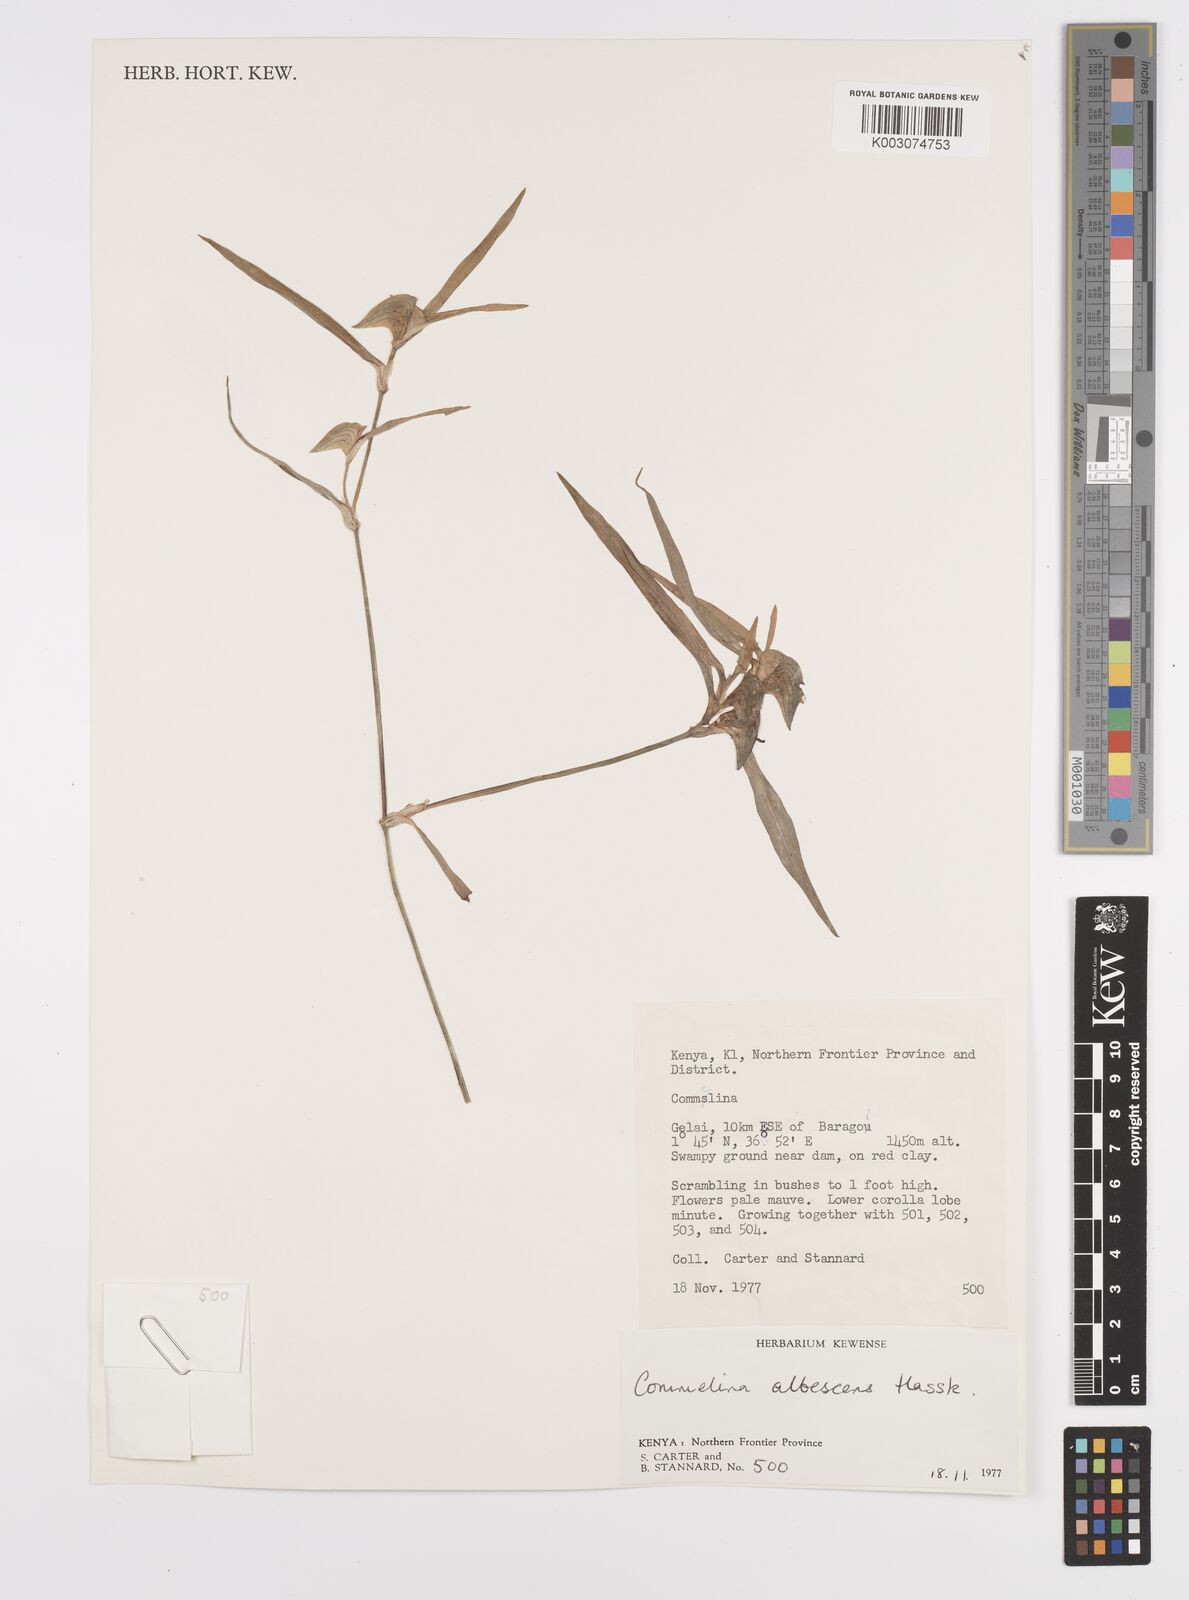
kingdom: Plantae
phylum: Tracheophyta
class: Liliopsida
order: Commelinales
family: Commelinaceae
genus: Commelina
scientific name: Commelina albescens
